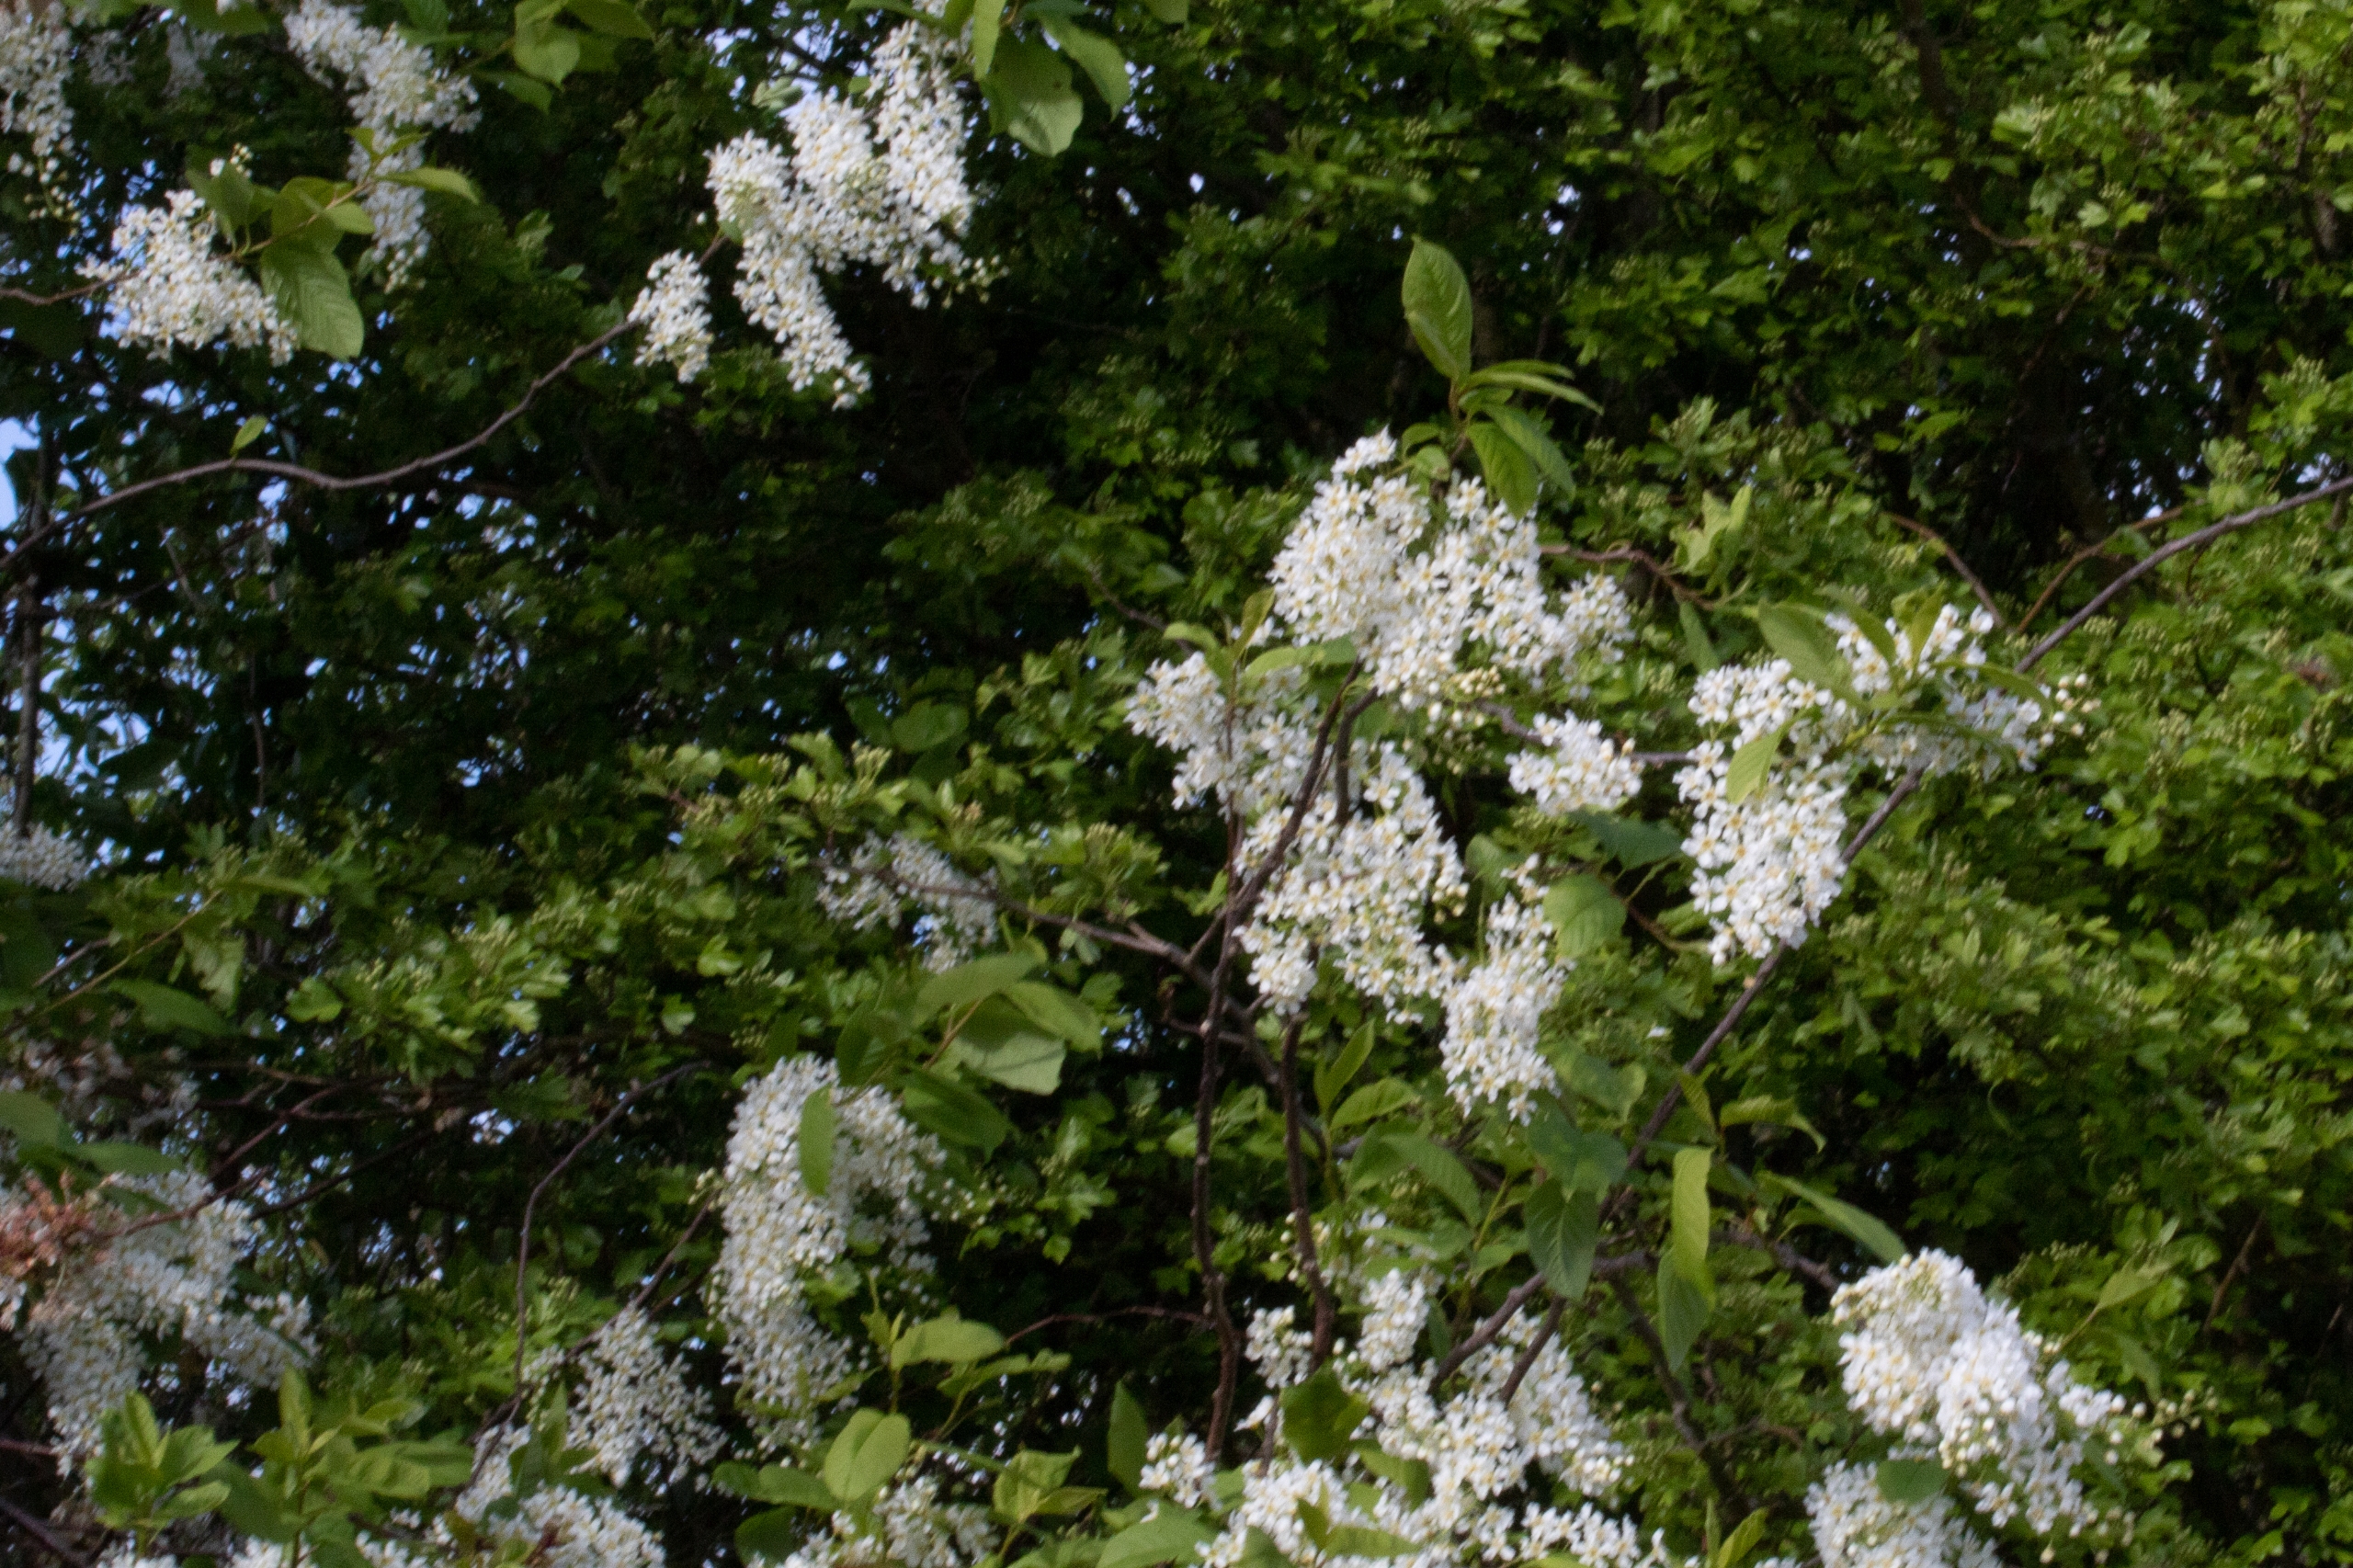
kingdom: Plantae
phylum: Tracheophyta
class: Magnoliopsida
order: Rosales
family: Rosaceae
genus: Prunus
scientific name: Prunus padus
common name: Almindelig hæg
